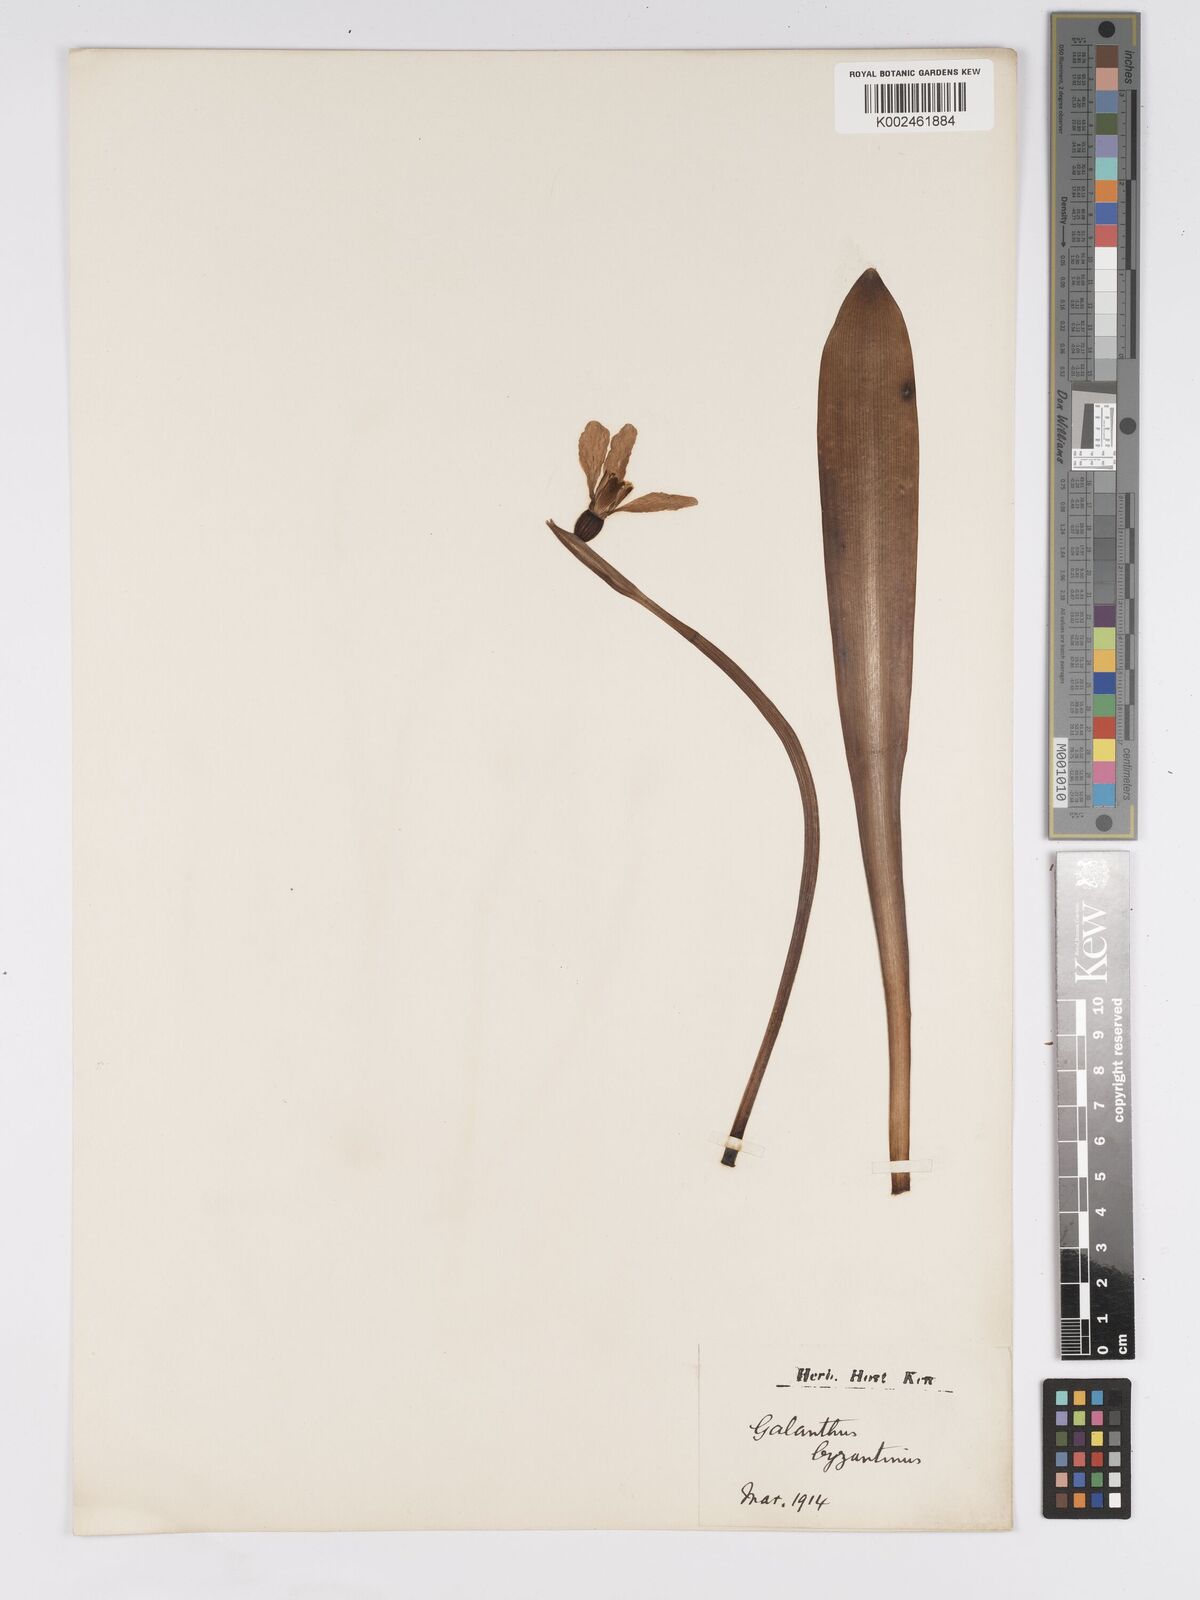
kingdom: Plantae
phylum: Tracheophyta
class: Liliopsida
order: Asparagales
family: Amaryllidaceae
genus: Galanthus
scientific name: Galanthus
